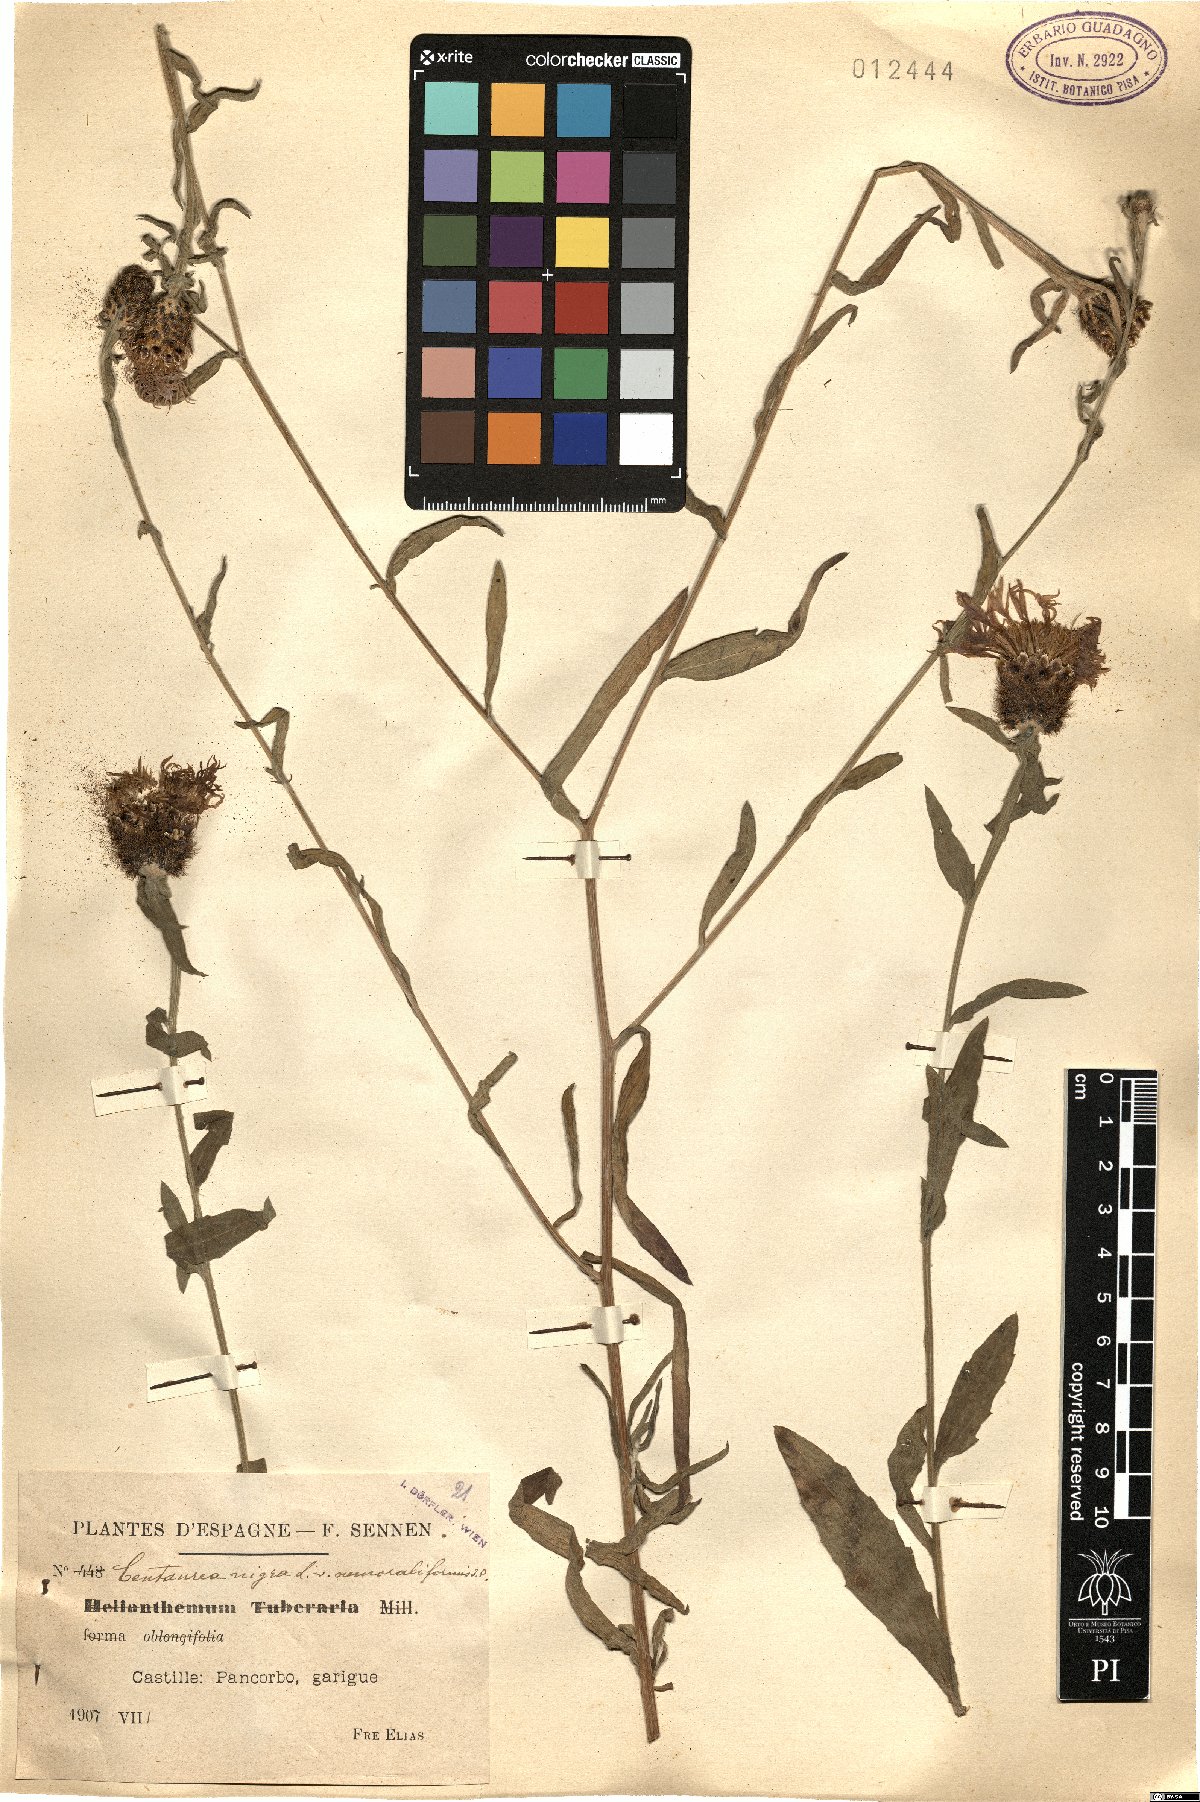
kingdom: Plantae
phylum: Tracheophyta
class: Magnoliopsida
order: Asterales
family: Asteraceae
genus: Centaurea
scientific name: Centaurea nigra
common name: Lesser knapweed
